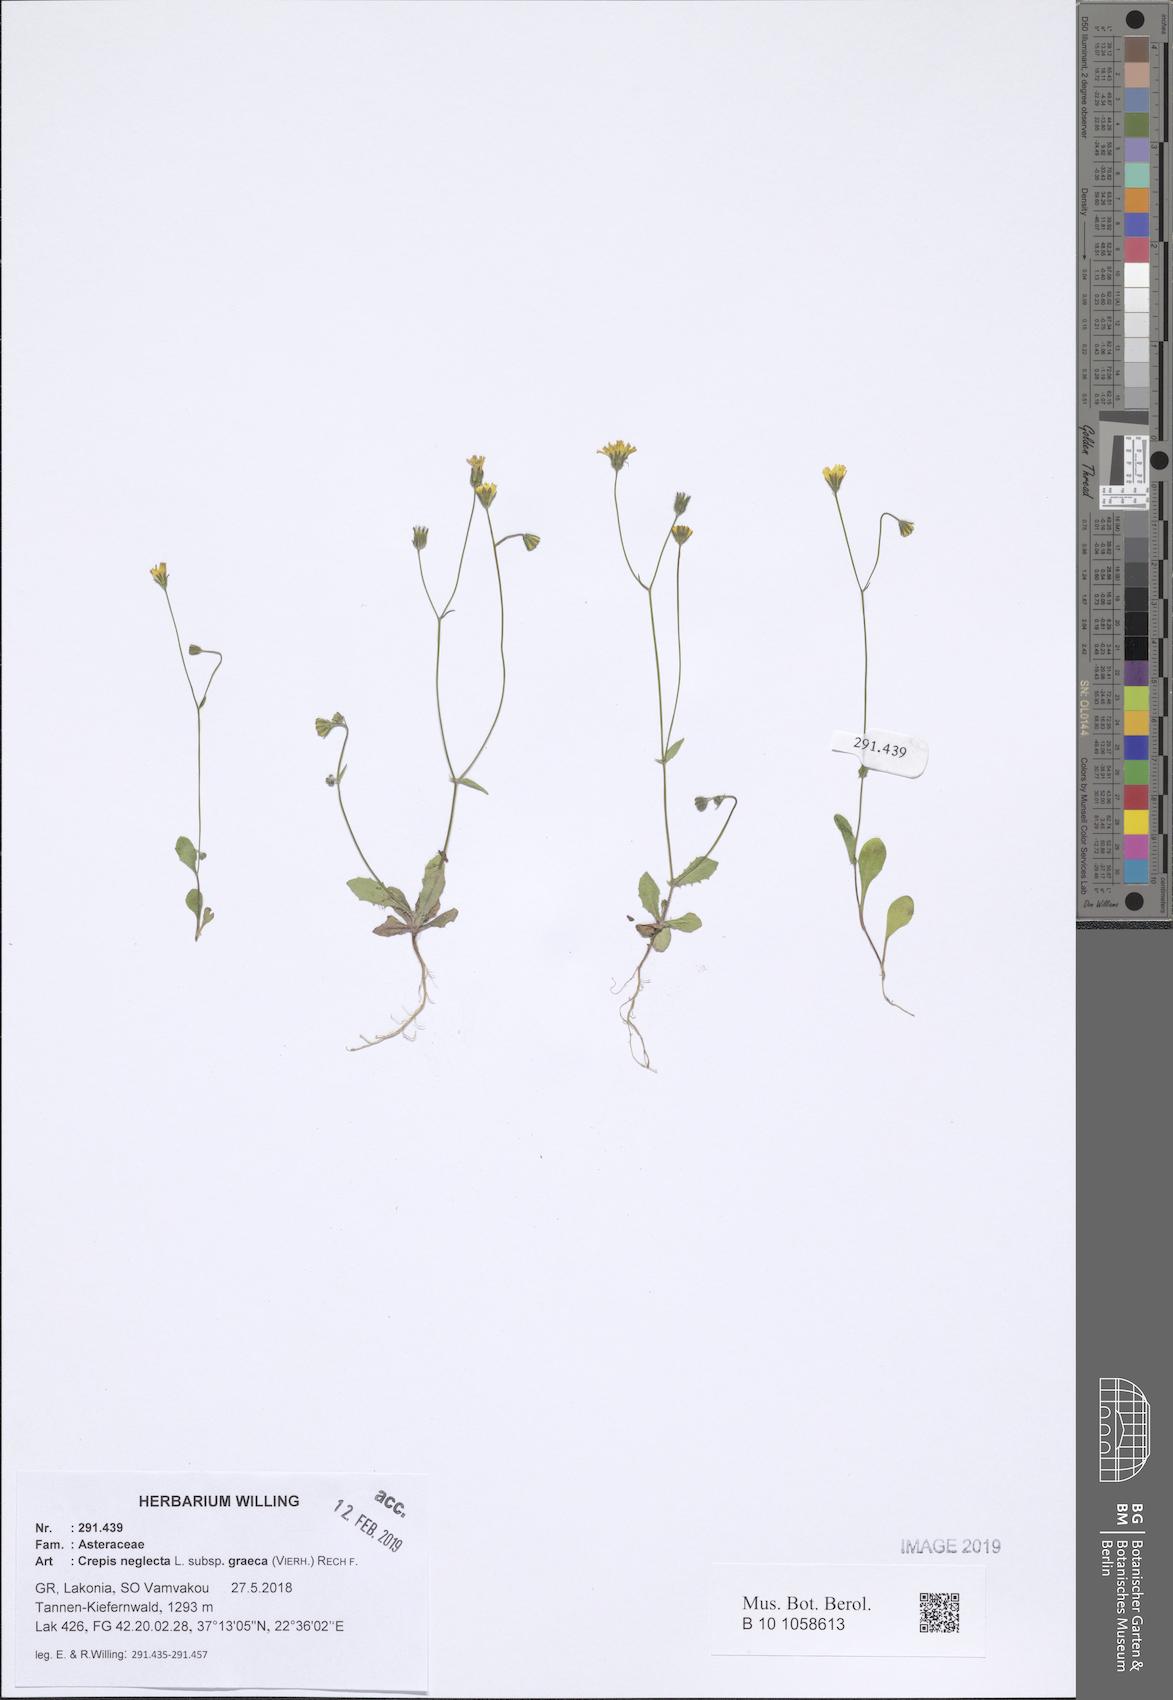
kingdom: Plantae
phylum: Tracheophyta
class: Magnoliopsida
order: Asterales
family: Asteraceae
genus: Crepis
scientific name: Crepis neglecta
